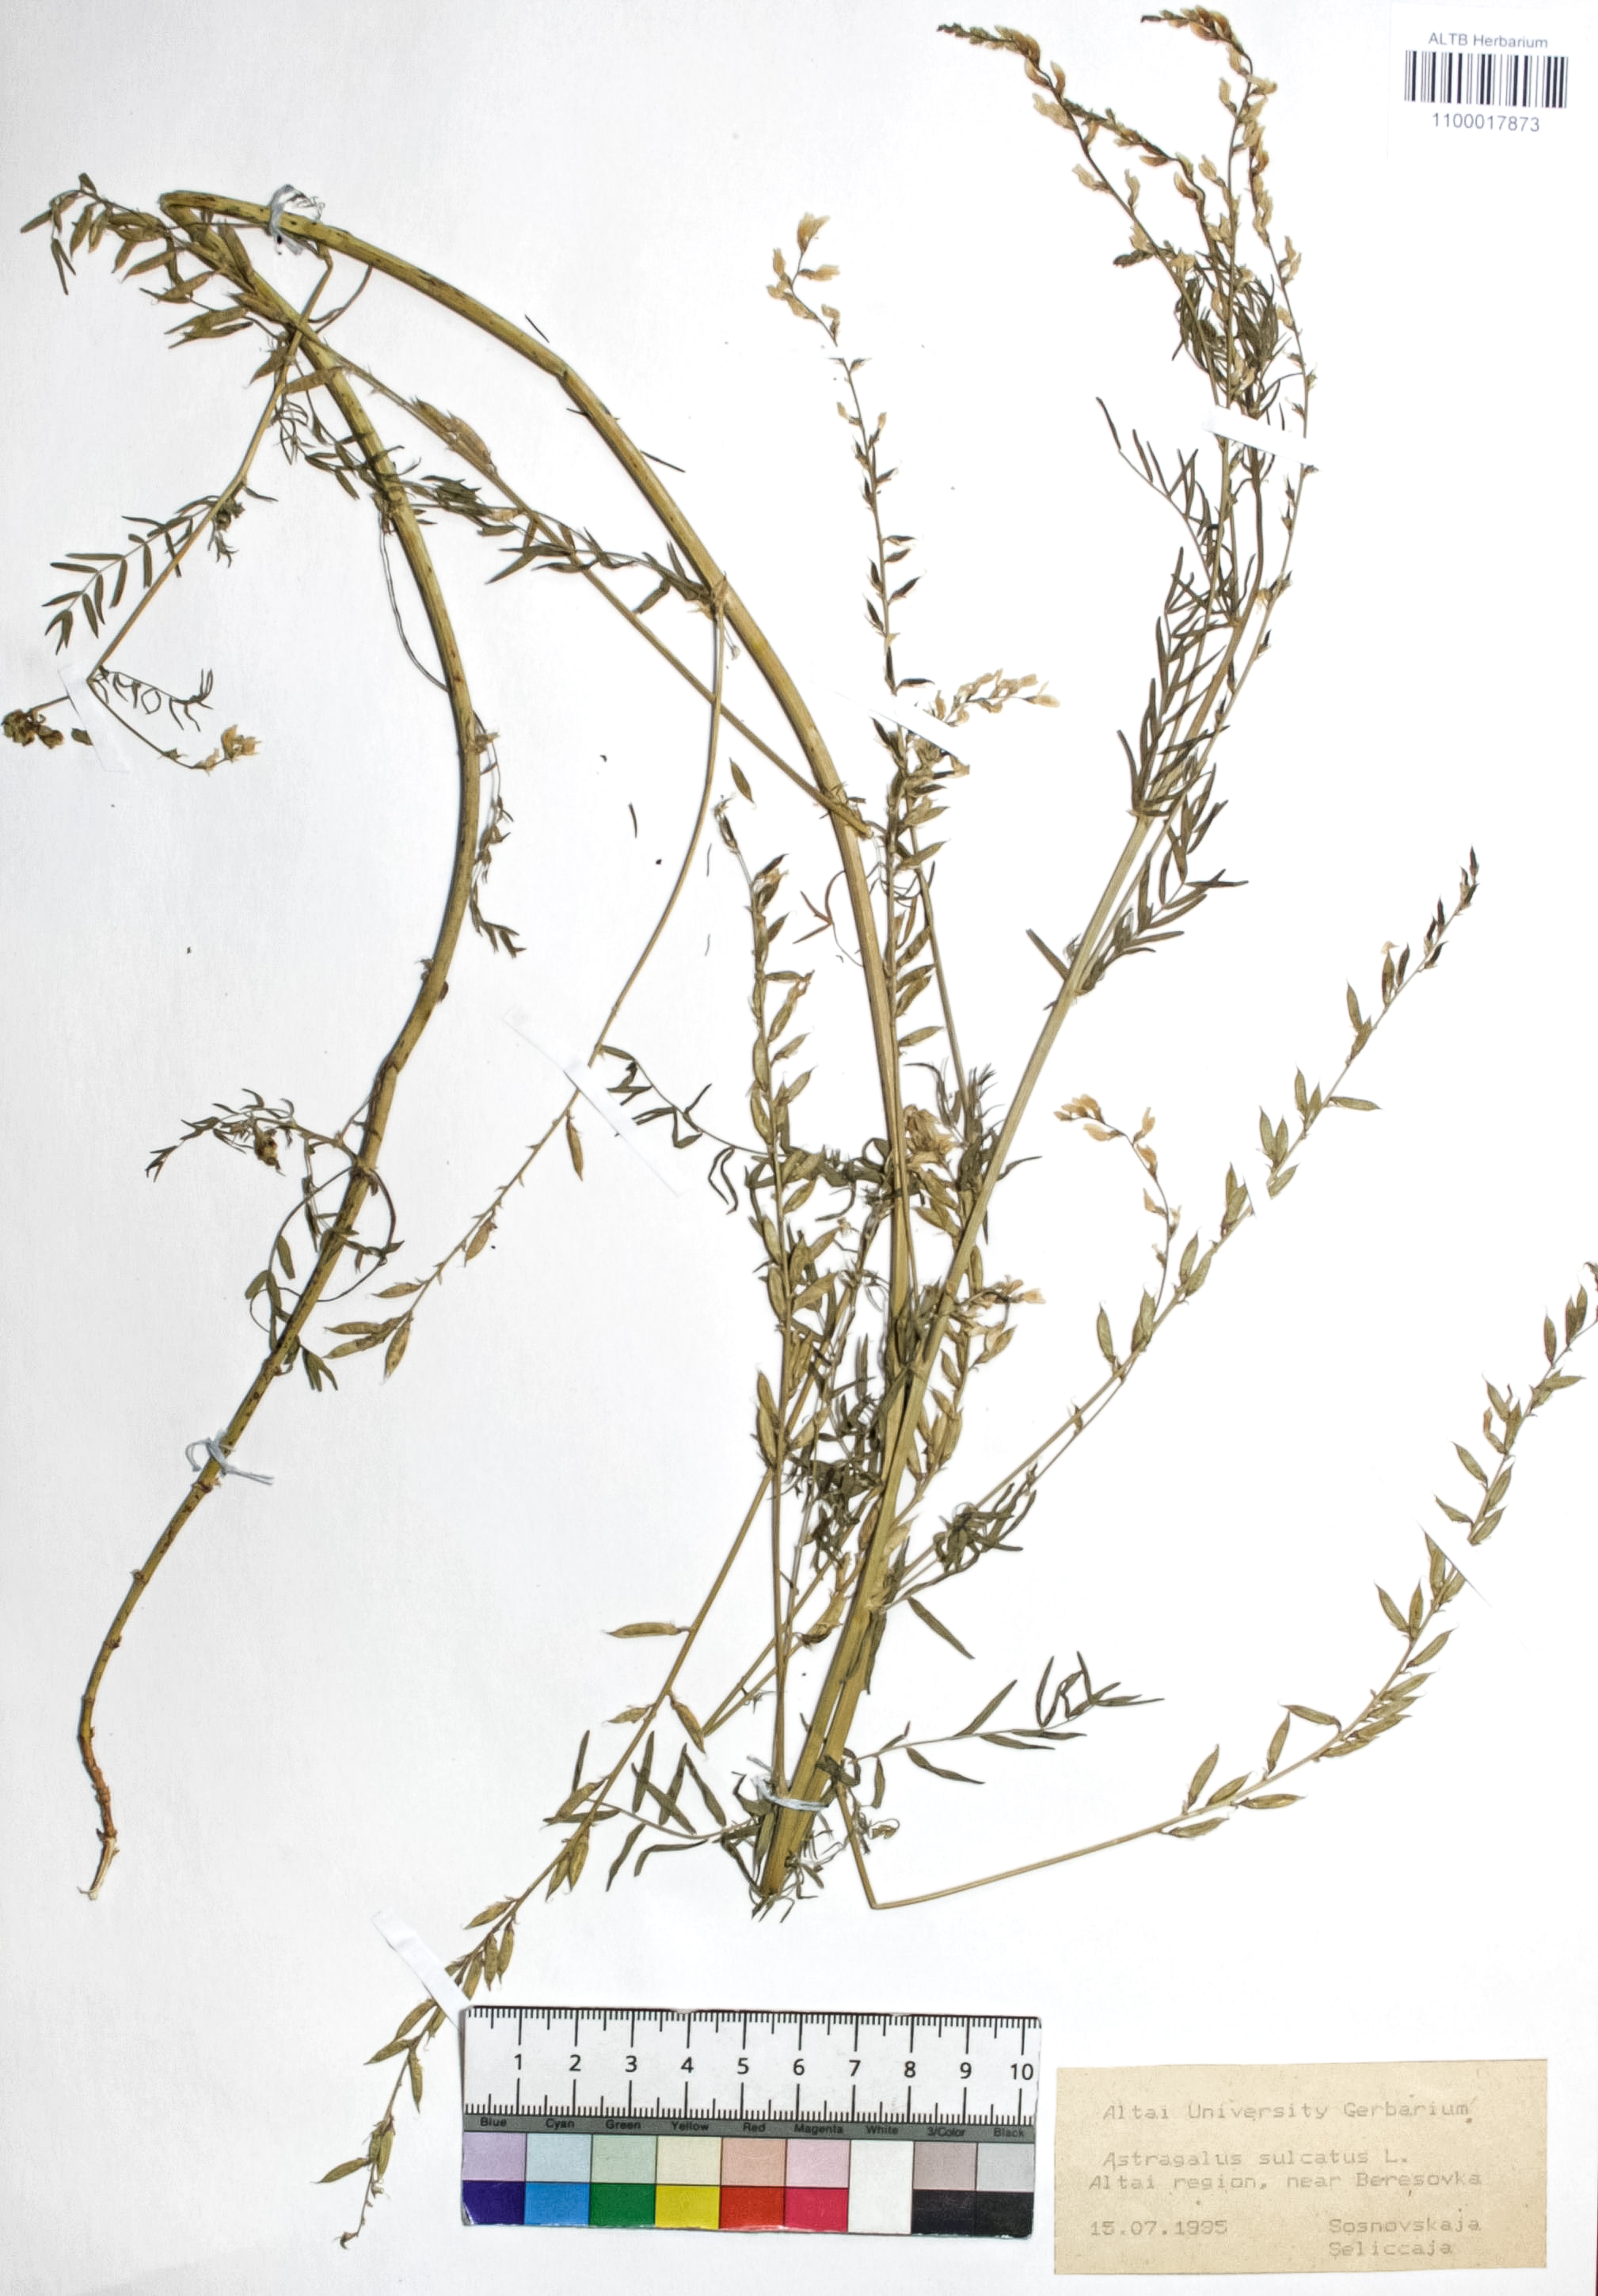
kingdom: Plantae
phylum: Tracheophyta
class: Magnoliopsida
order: Fabales
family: Fabaceae
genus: Astragalus
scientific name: Astragalus sulcatus
